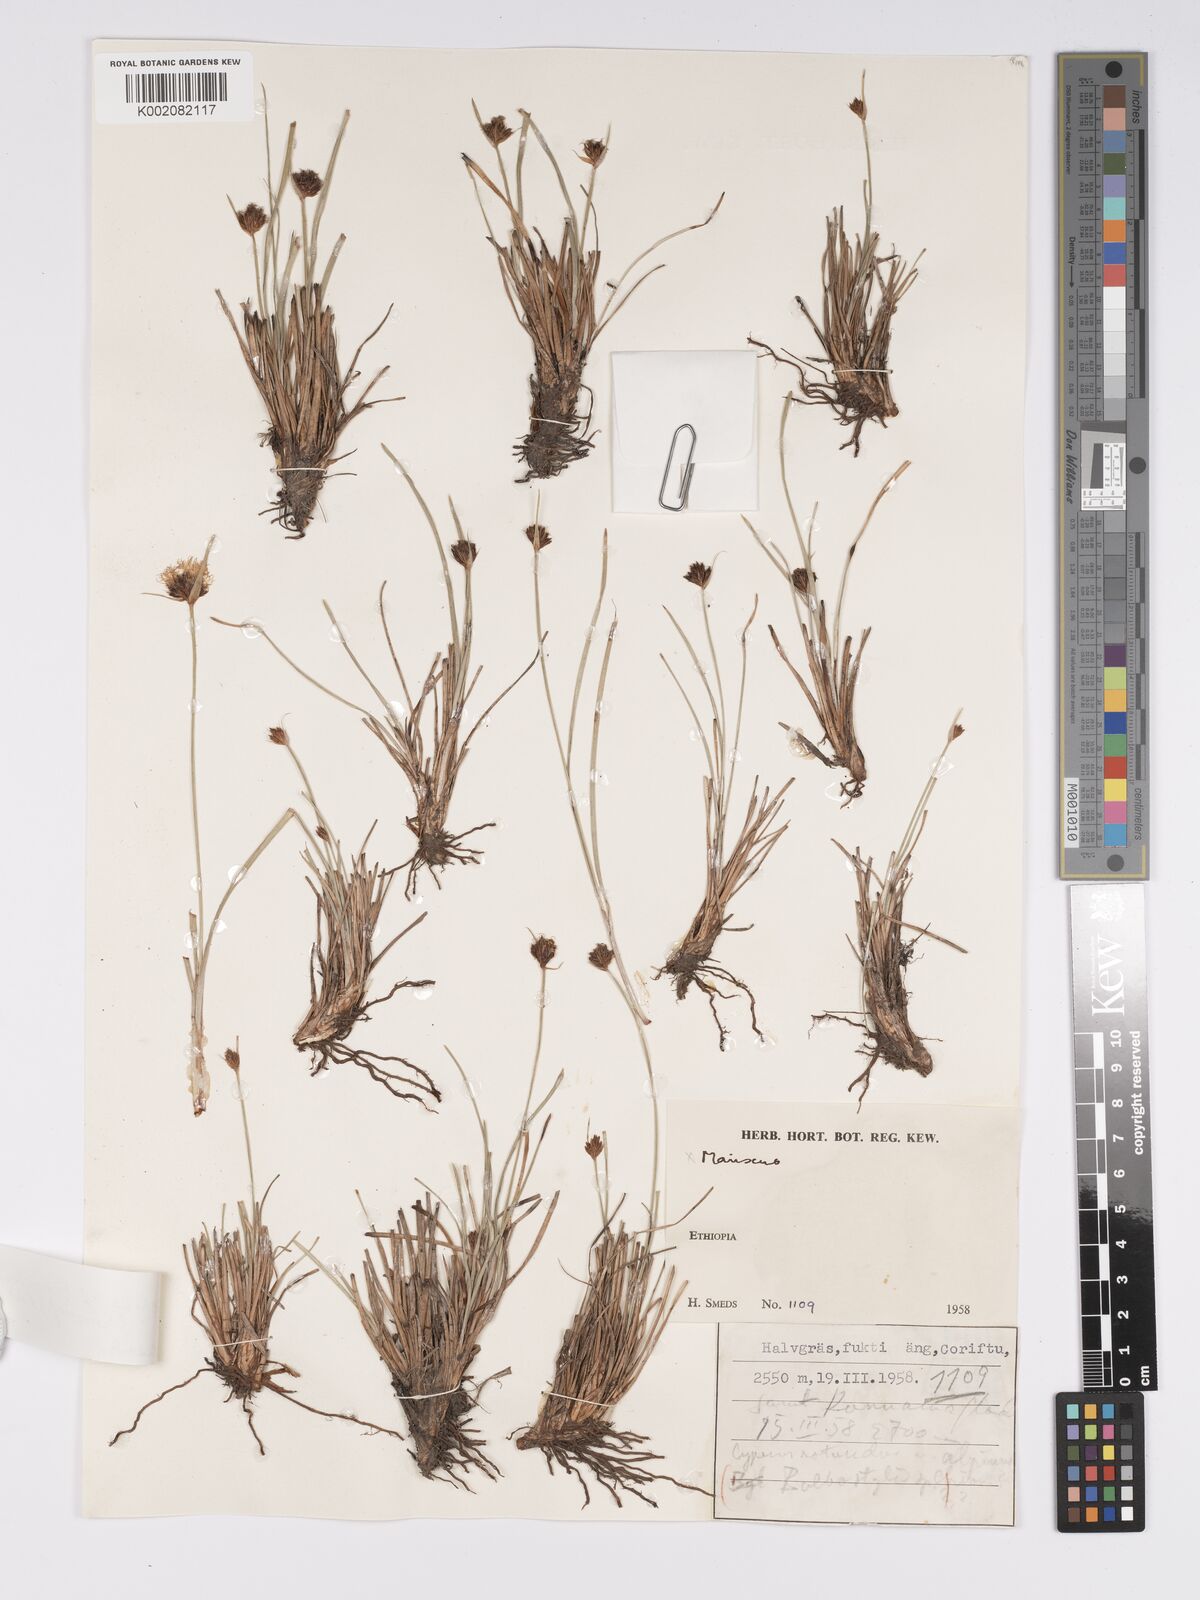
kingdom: Plantae
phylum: Tracheophyta
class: Liliopsida
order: Poales
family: Cyperaceae
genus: Bulbostylis
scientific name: Bulbostylis boeckeleriana
